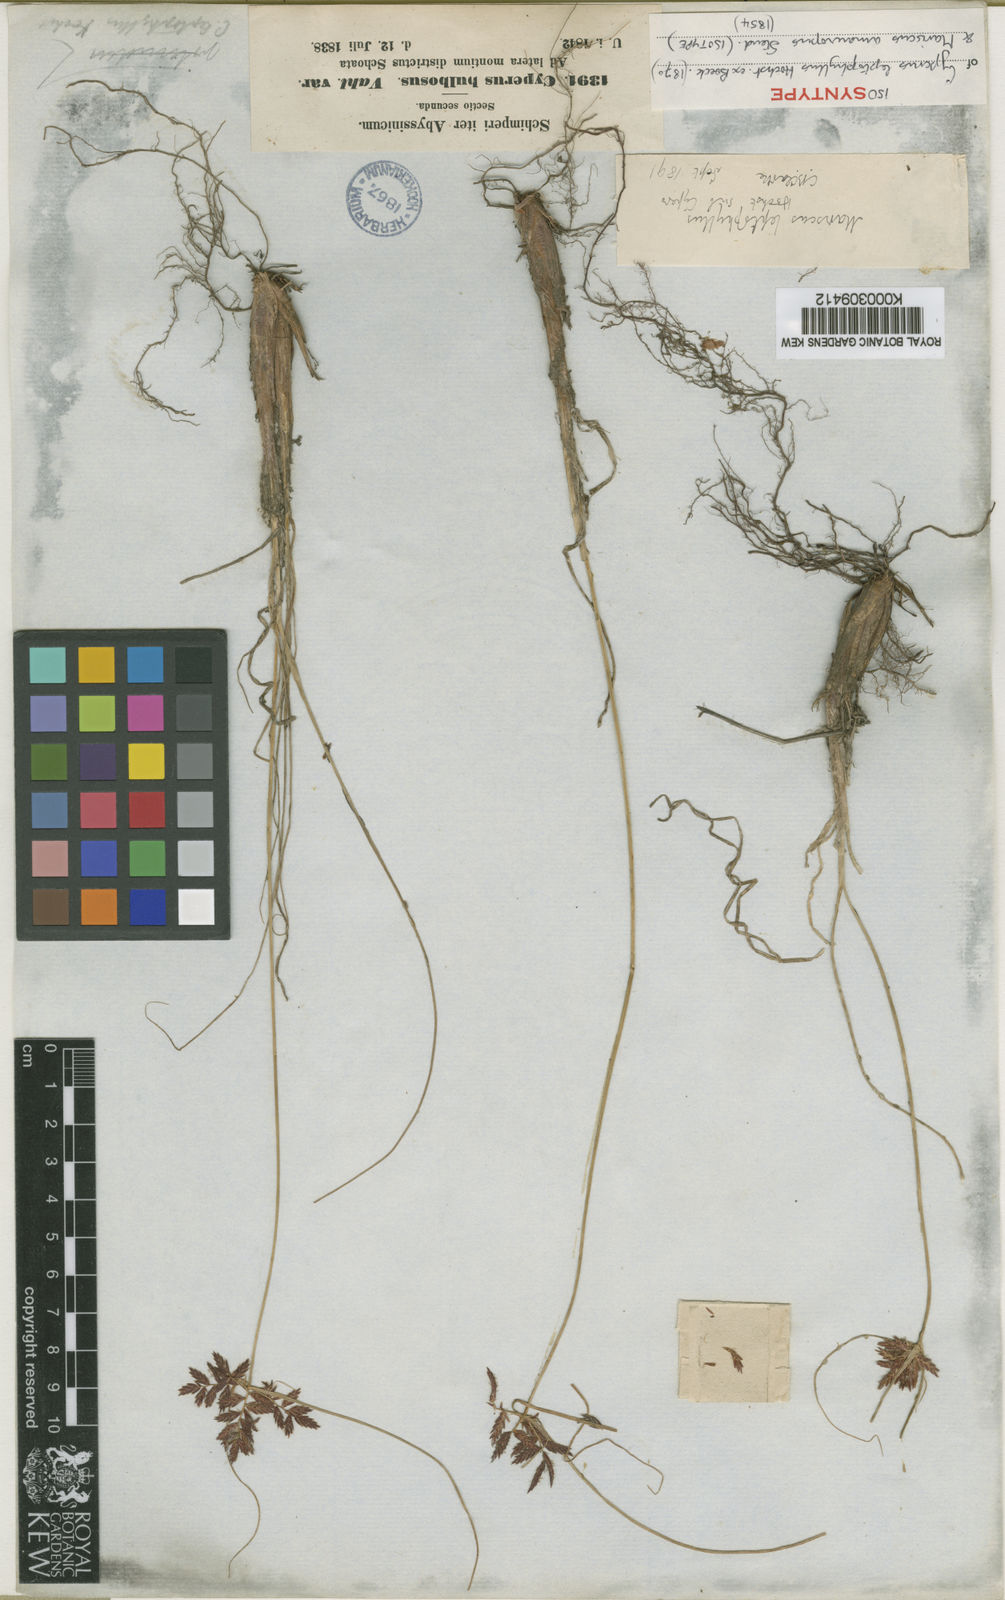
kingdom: Plantae
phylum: Tracheophyta
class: Liliopsida
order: Poales
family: Cyperaceae
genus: Cyperus
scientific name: Cyperus
